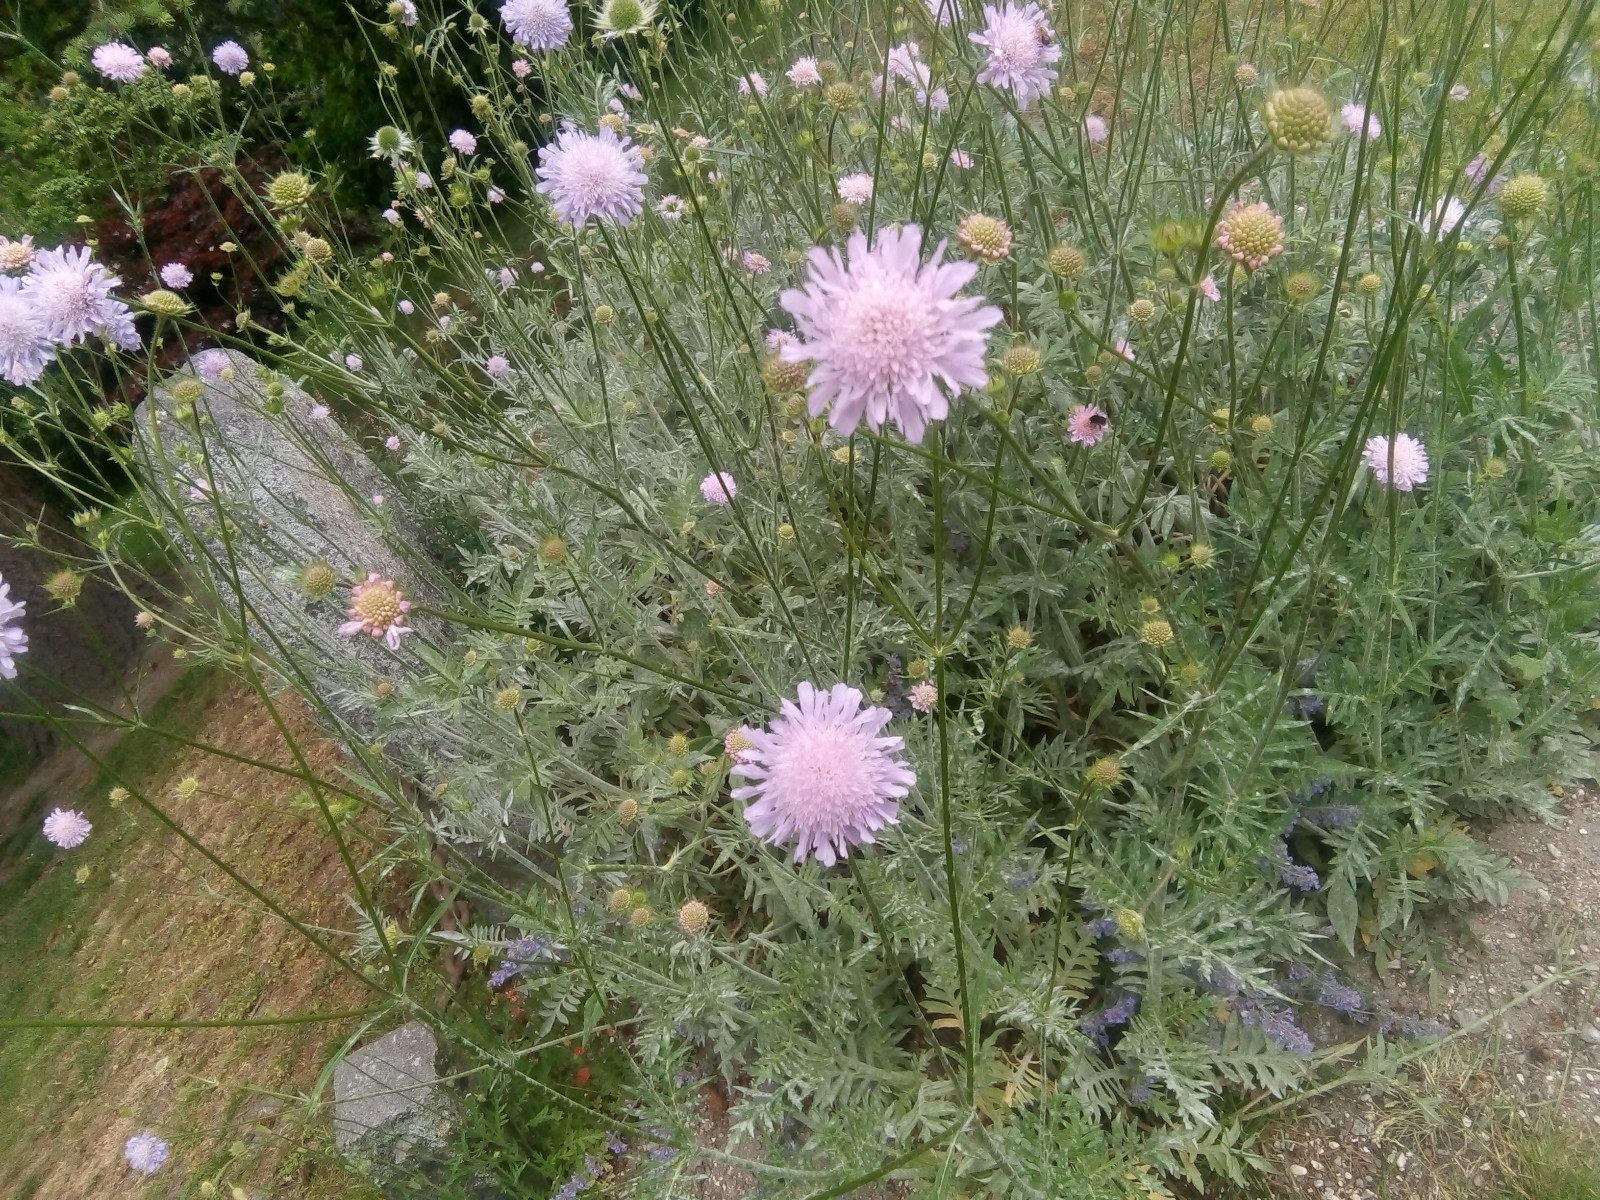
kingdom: Fungi
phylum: Ascomycota
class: Leotiomycetes
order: Helotiales
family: Erysiphaceae
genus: Podosphaera
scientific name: Podosphaera dipsacacearum
